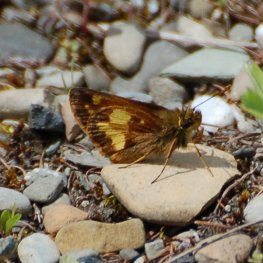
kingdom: Animalia
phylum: Arthropoda
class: Insecta
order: Lepidoptera
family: Hesperiidae
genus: Lon
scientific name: Lon hobomok
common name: Hobomok Skipper
